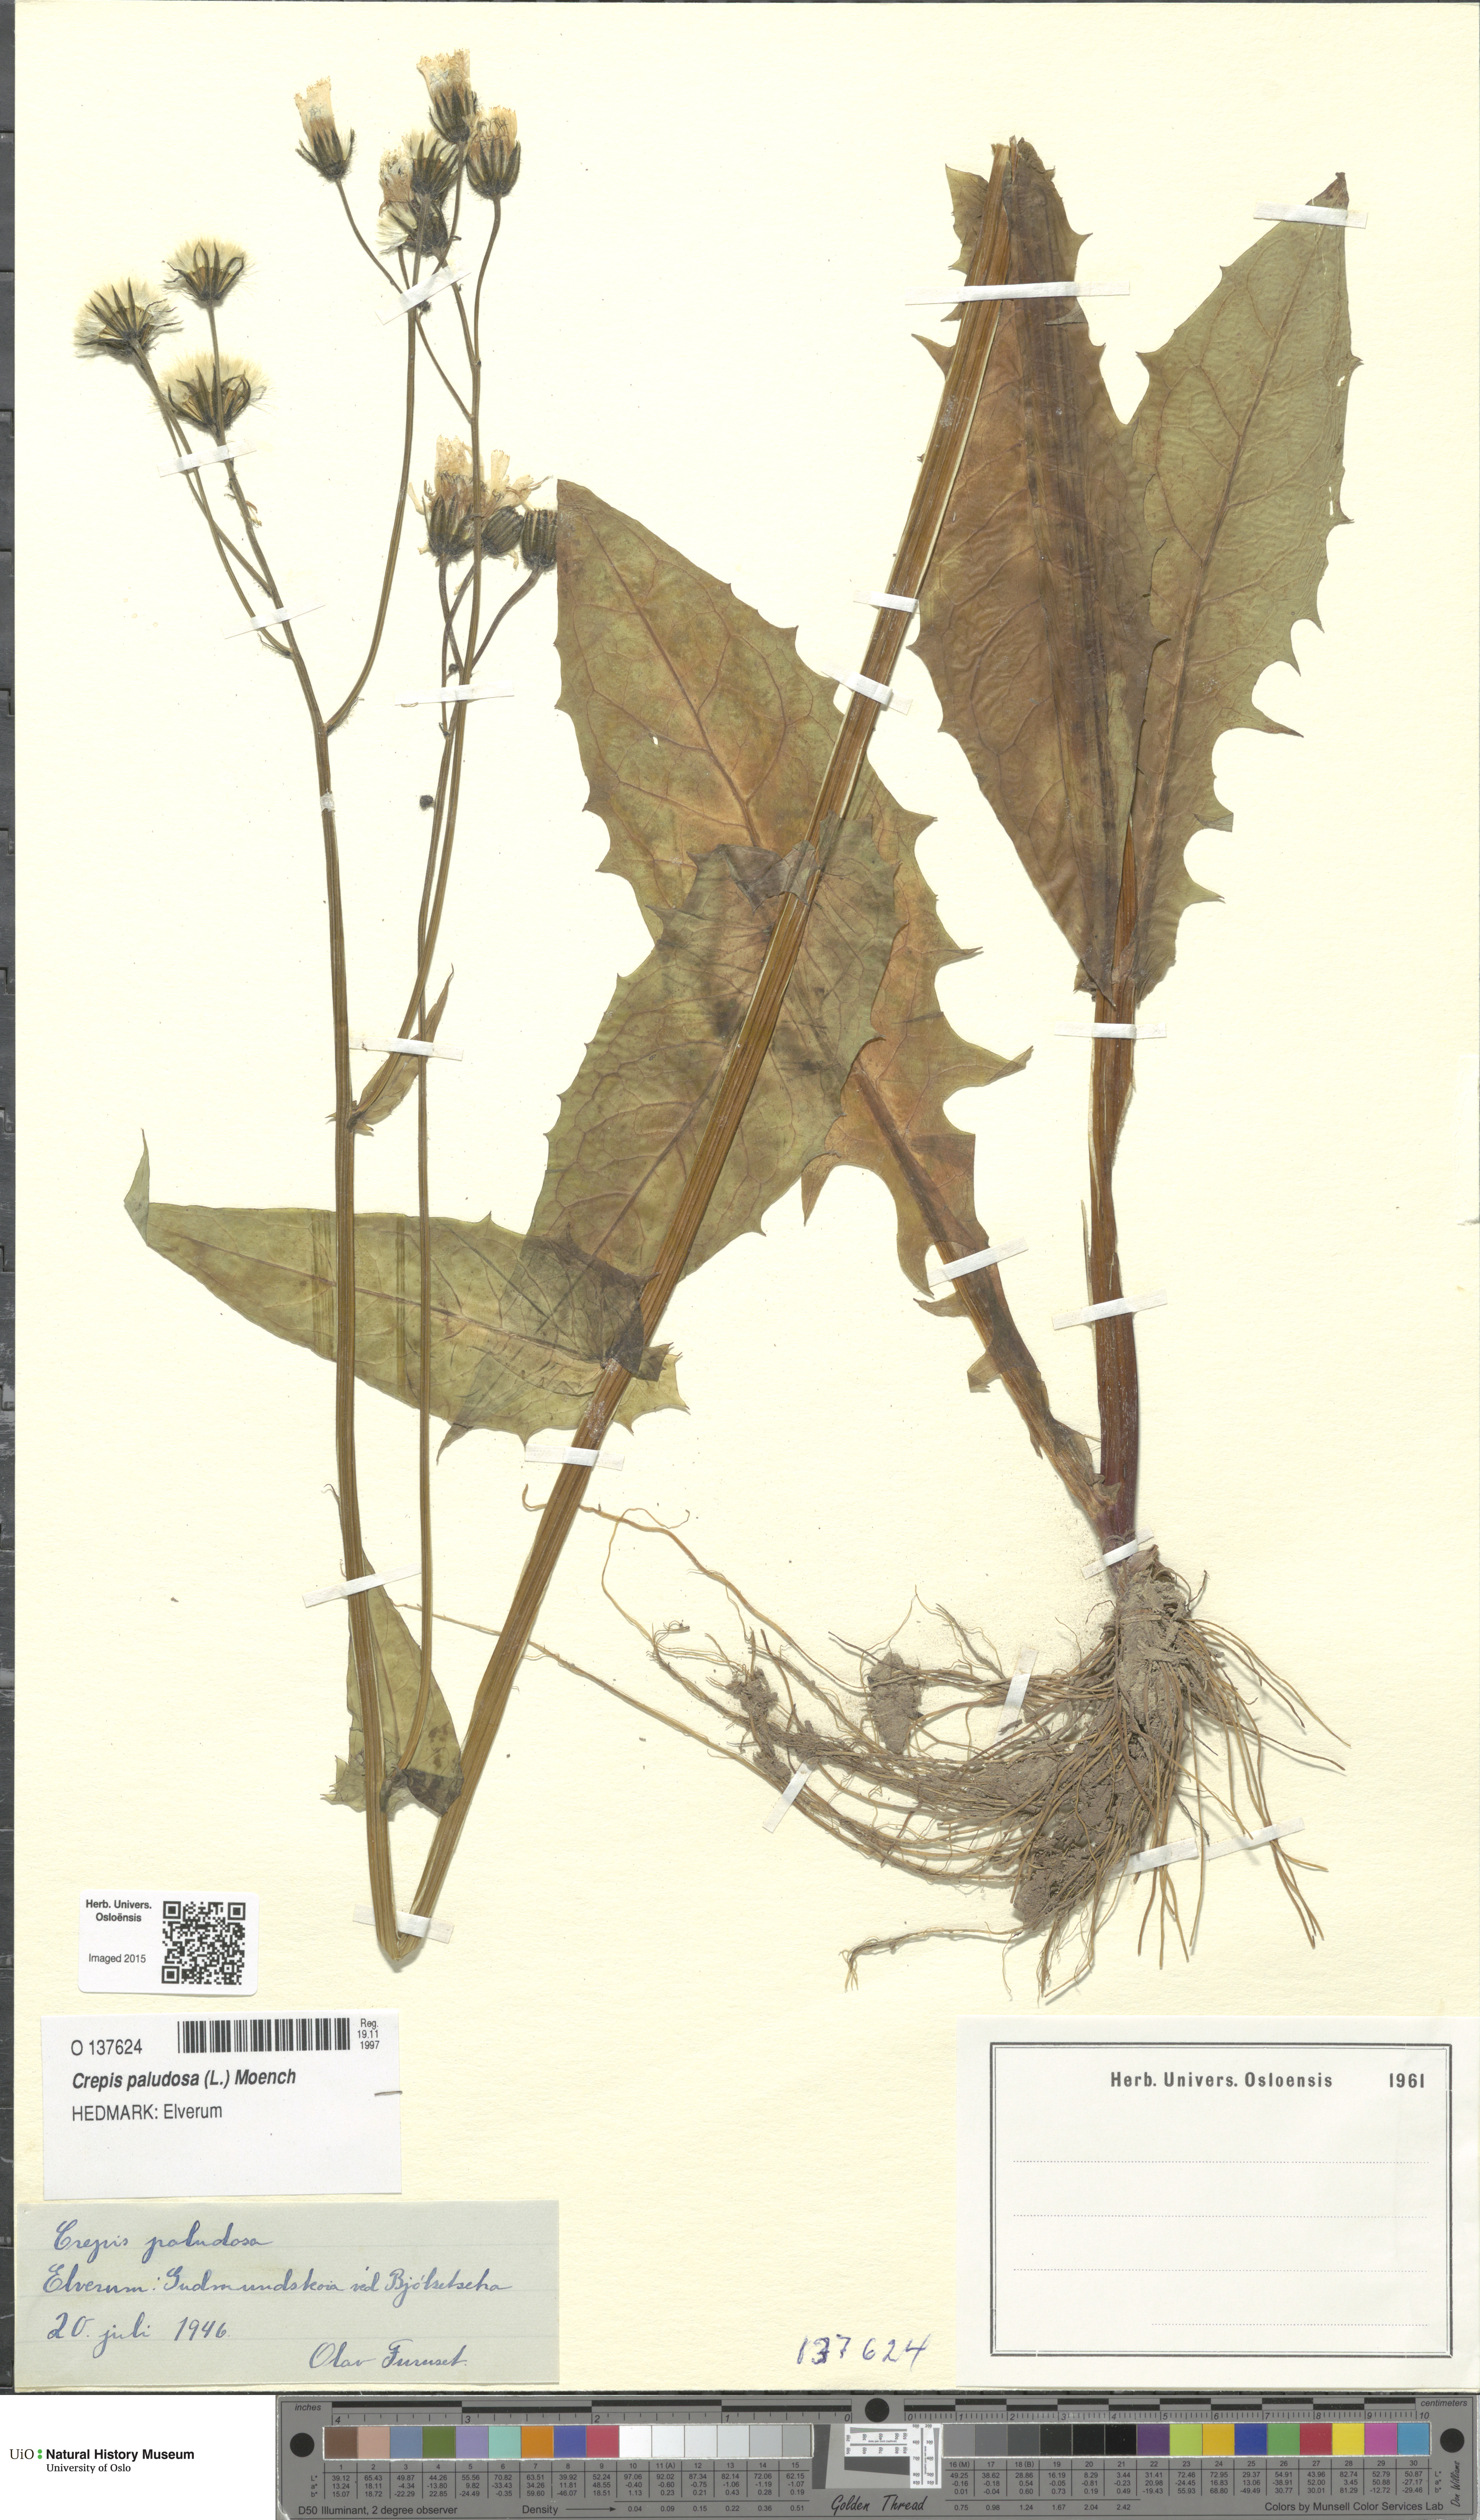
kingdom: Plantae
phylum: Tracheophyta
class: Magnoliopsida
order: Asterales
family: Asteraceae
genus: Crepis
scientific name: Crepis paludosa
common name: Marsh hawk's-beard
